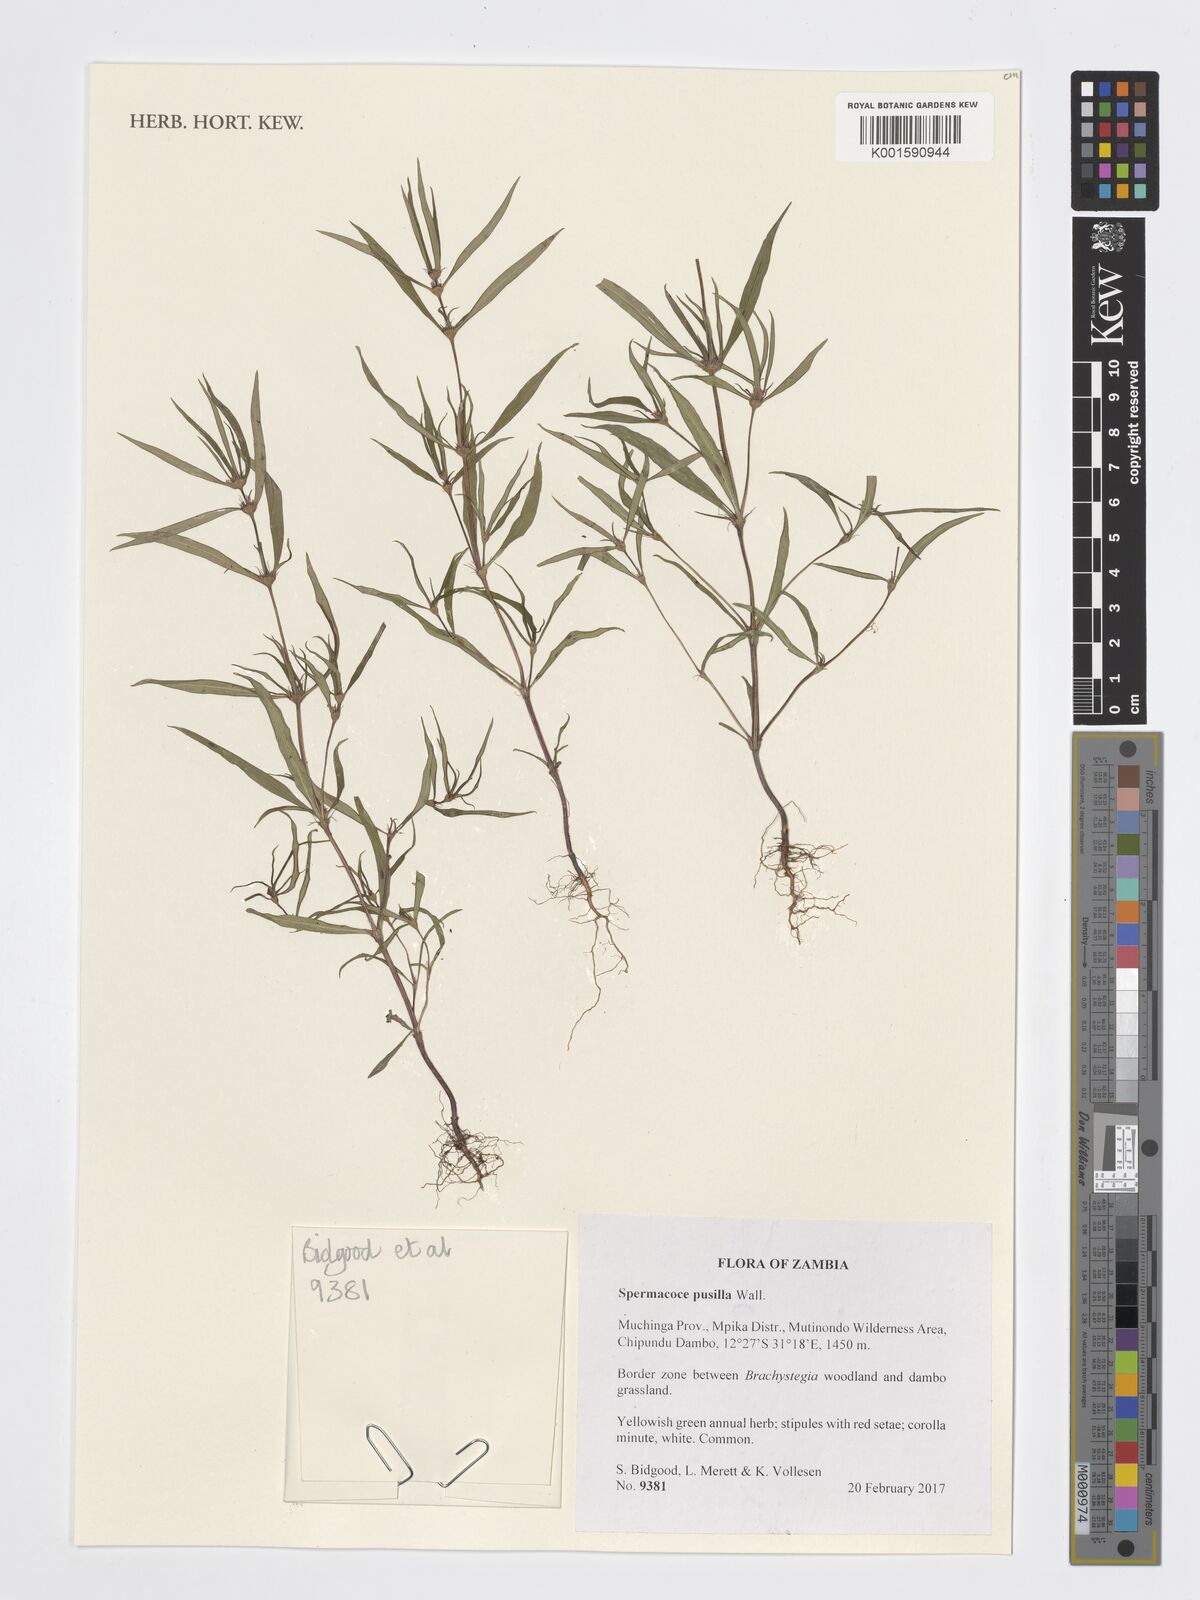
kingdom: Plantae
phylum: Tracheophyta
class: Magnoliopsida
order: Gentianales
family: Rubiaceae
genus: Spermacoce
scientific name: Spermacoce pusilla
